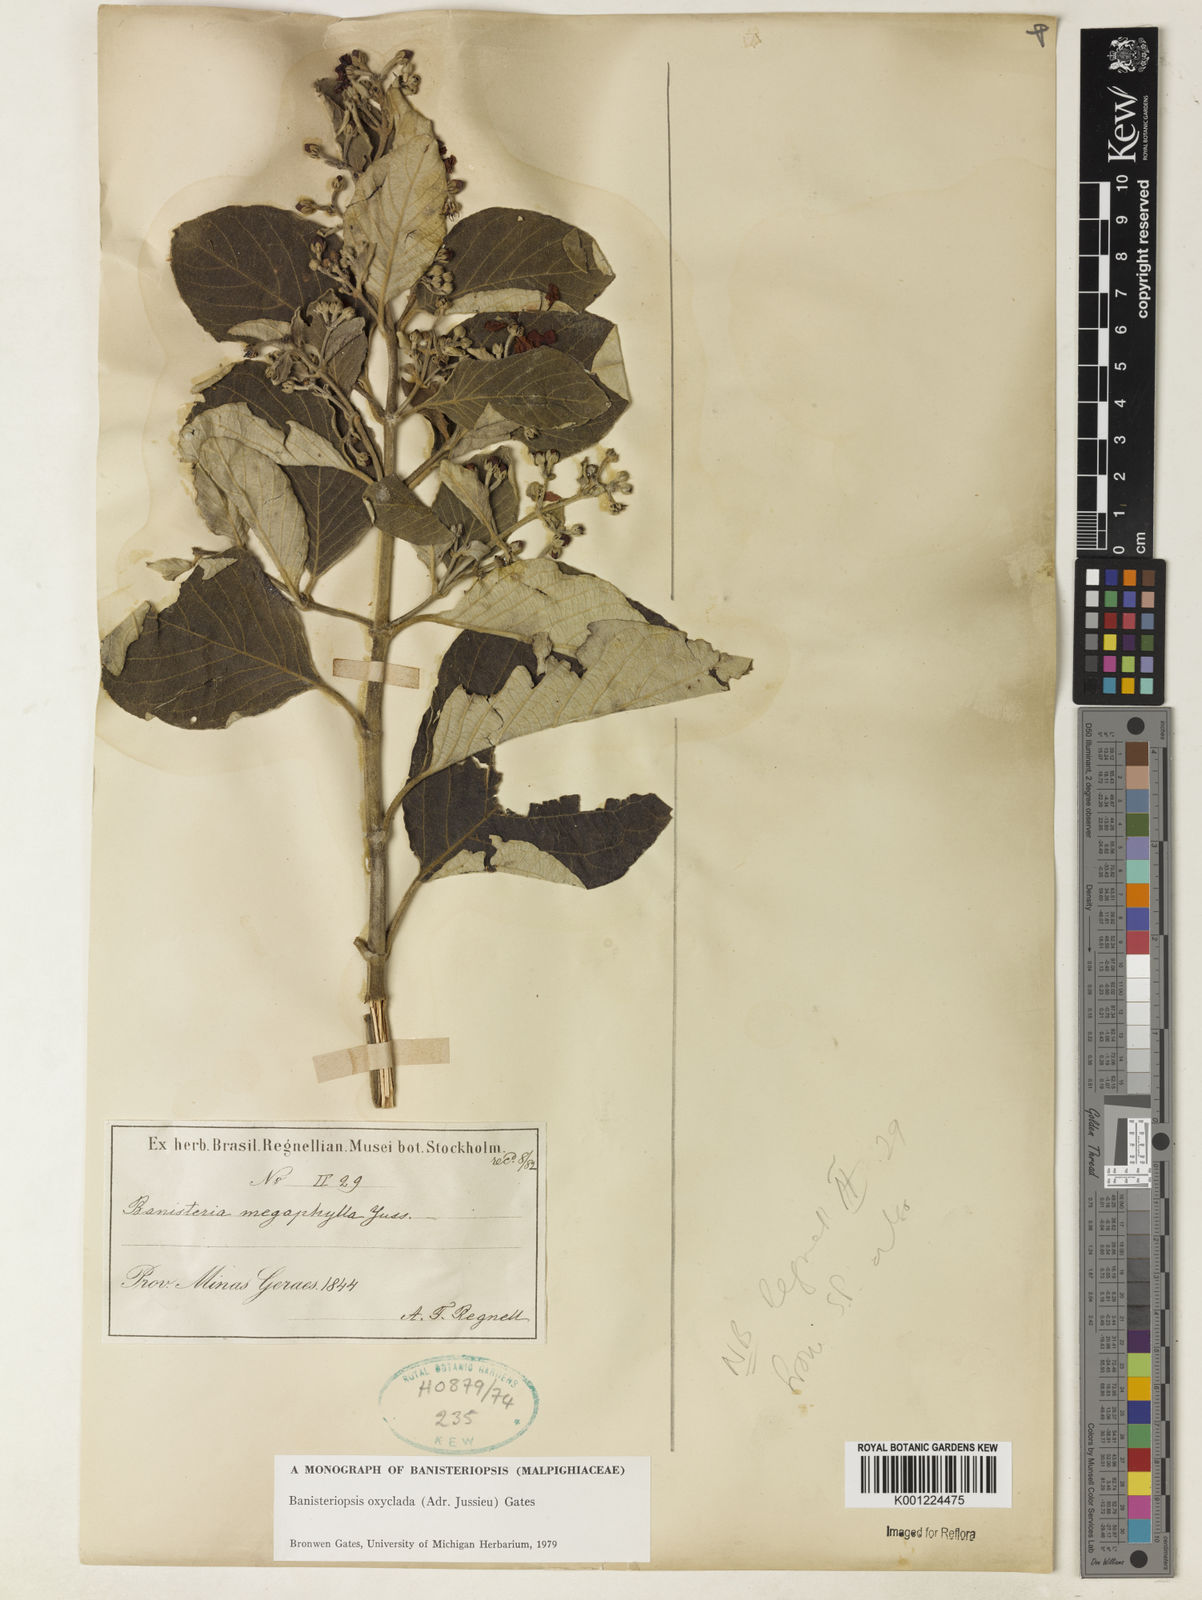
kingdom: Plantae
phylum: Tracheophyta
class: Magnoliopsida
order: Malpighiales
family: Malpighiaceae
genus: Banisteriopsis
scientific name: Banisteriopsis oxyclada
